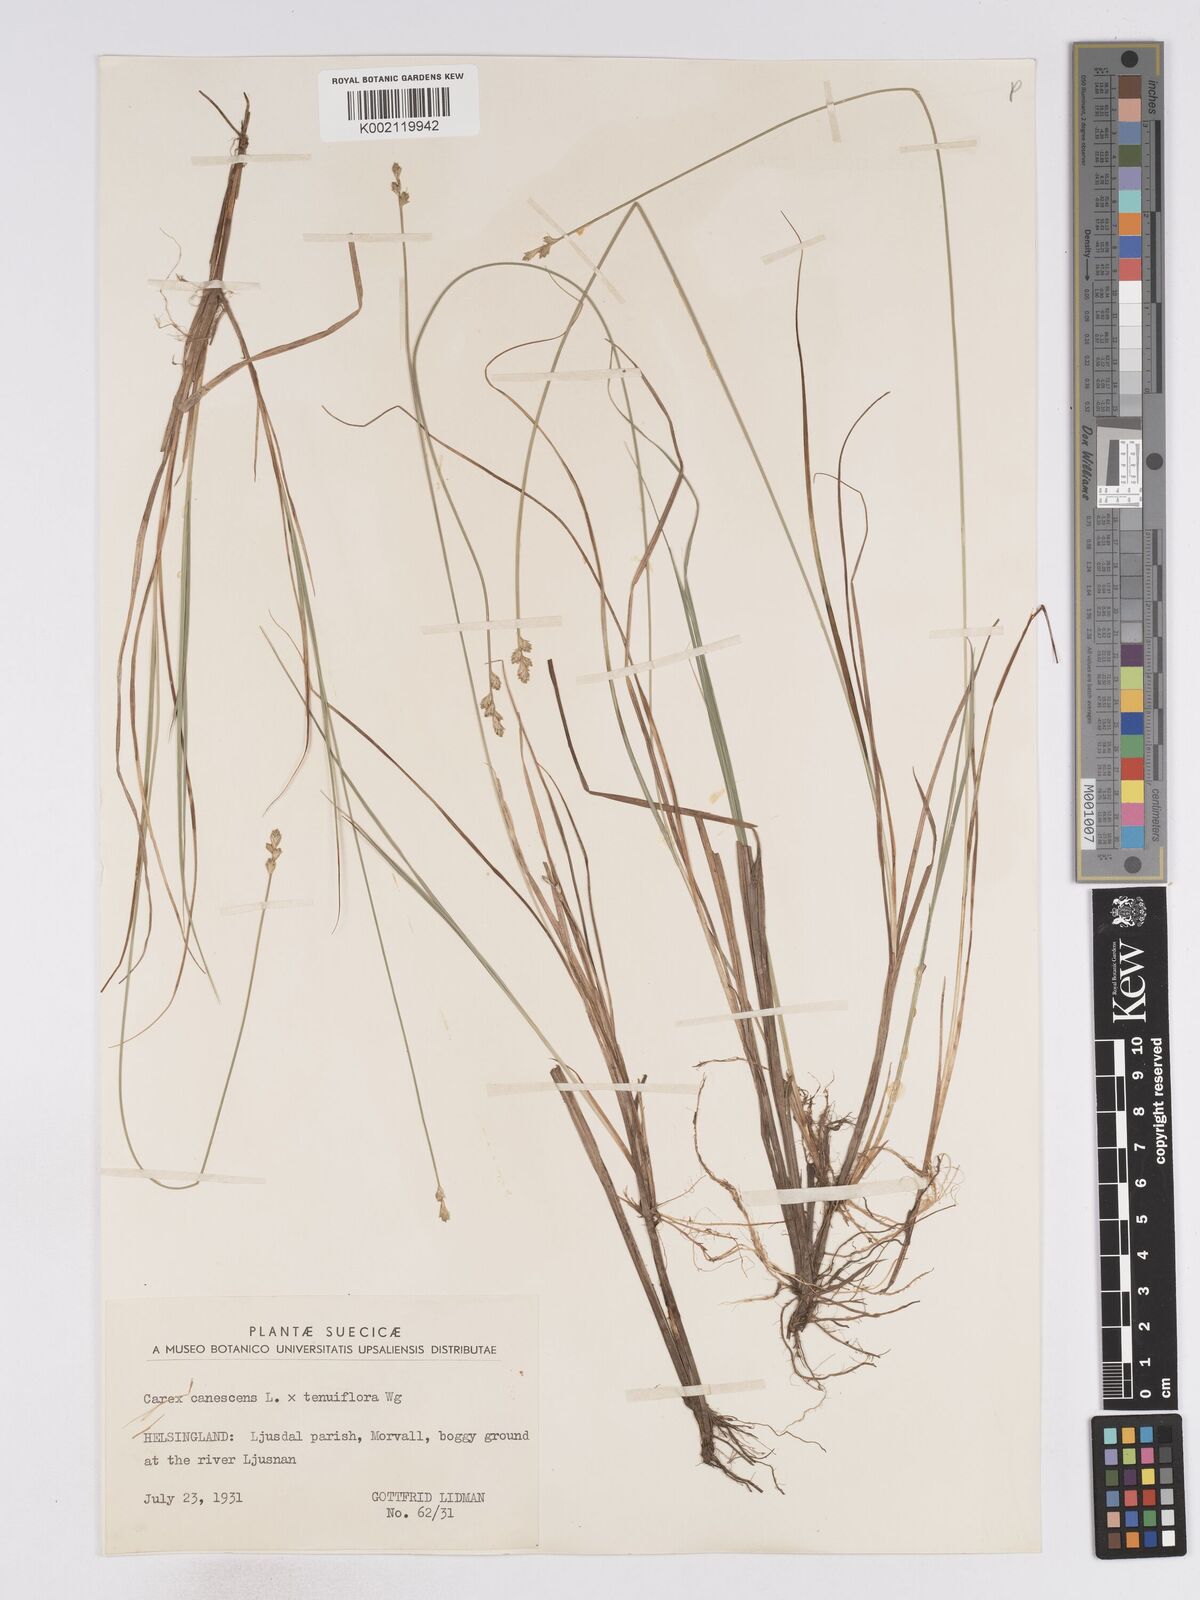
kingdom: Plantae
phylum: Tracheophyta
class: Liliopsida
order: Poales
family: Cyperaceae
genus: Carex
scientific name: Carex curta
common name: White sedge
